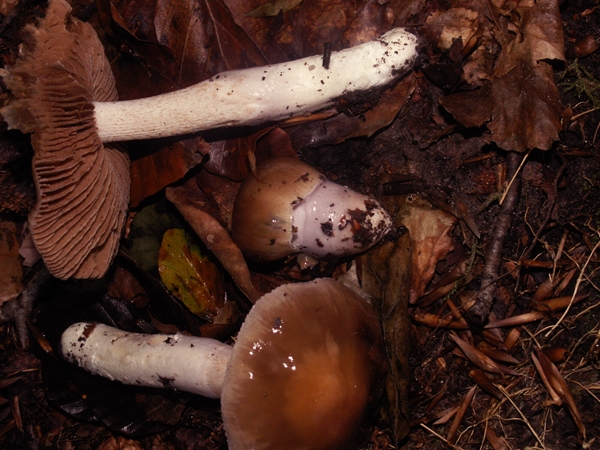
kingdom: Fungi
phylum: Basidiomycota
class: Agaricomycetes
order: Agaricales
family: Cortinariaceae
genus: Cortinarius
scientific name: Cortinarius elatior
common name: høj slørhat
